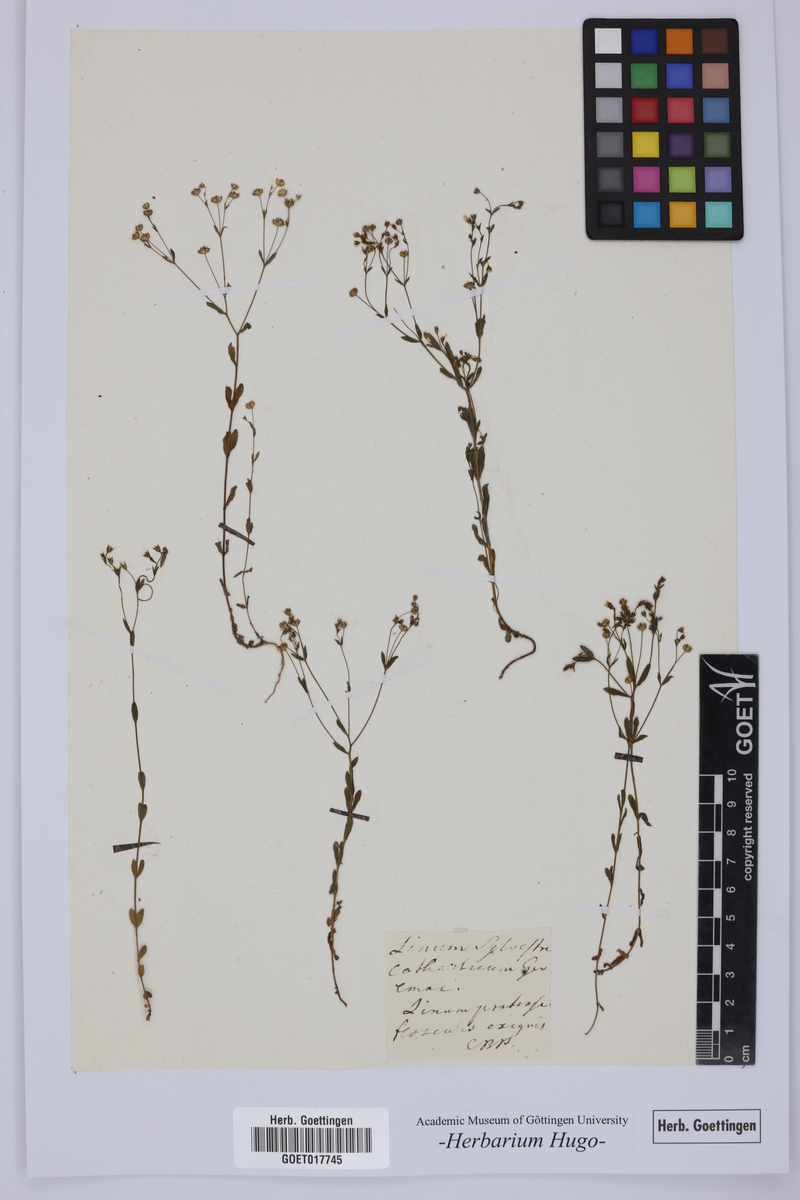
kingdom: Plantae
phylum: Tracheophyta
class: Magnoliopsida
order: Malpighiales
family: Linaceae
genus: Linum
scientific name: Linum catharticum
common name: Fairy flax
